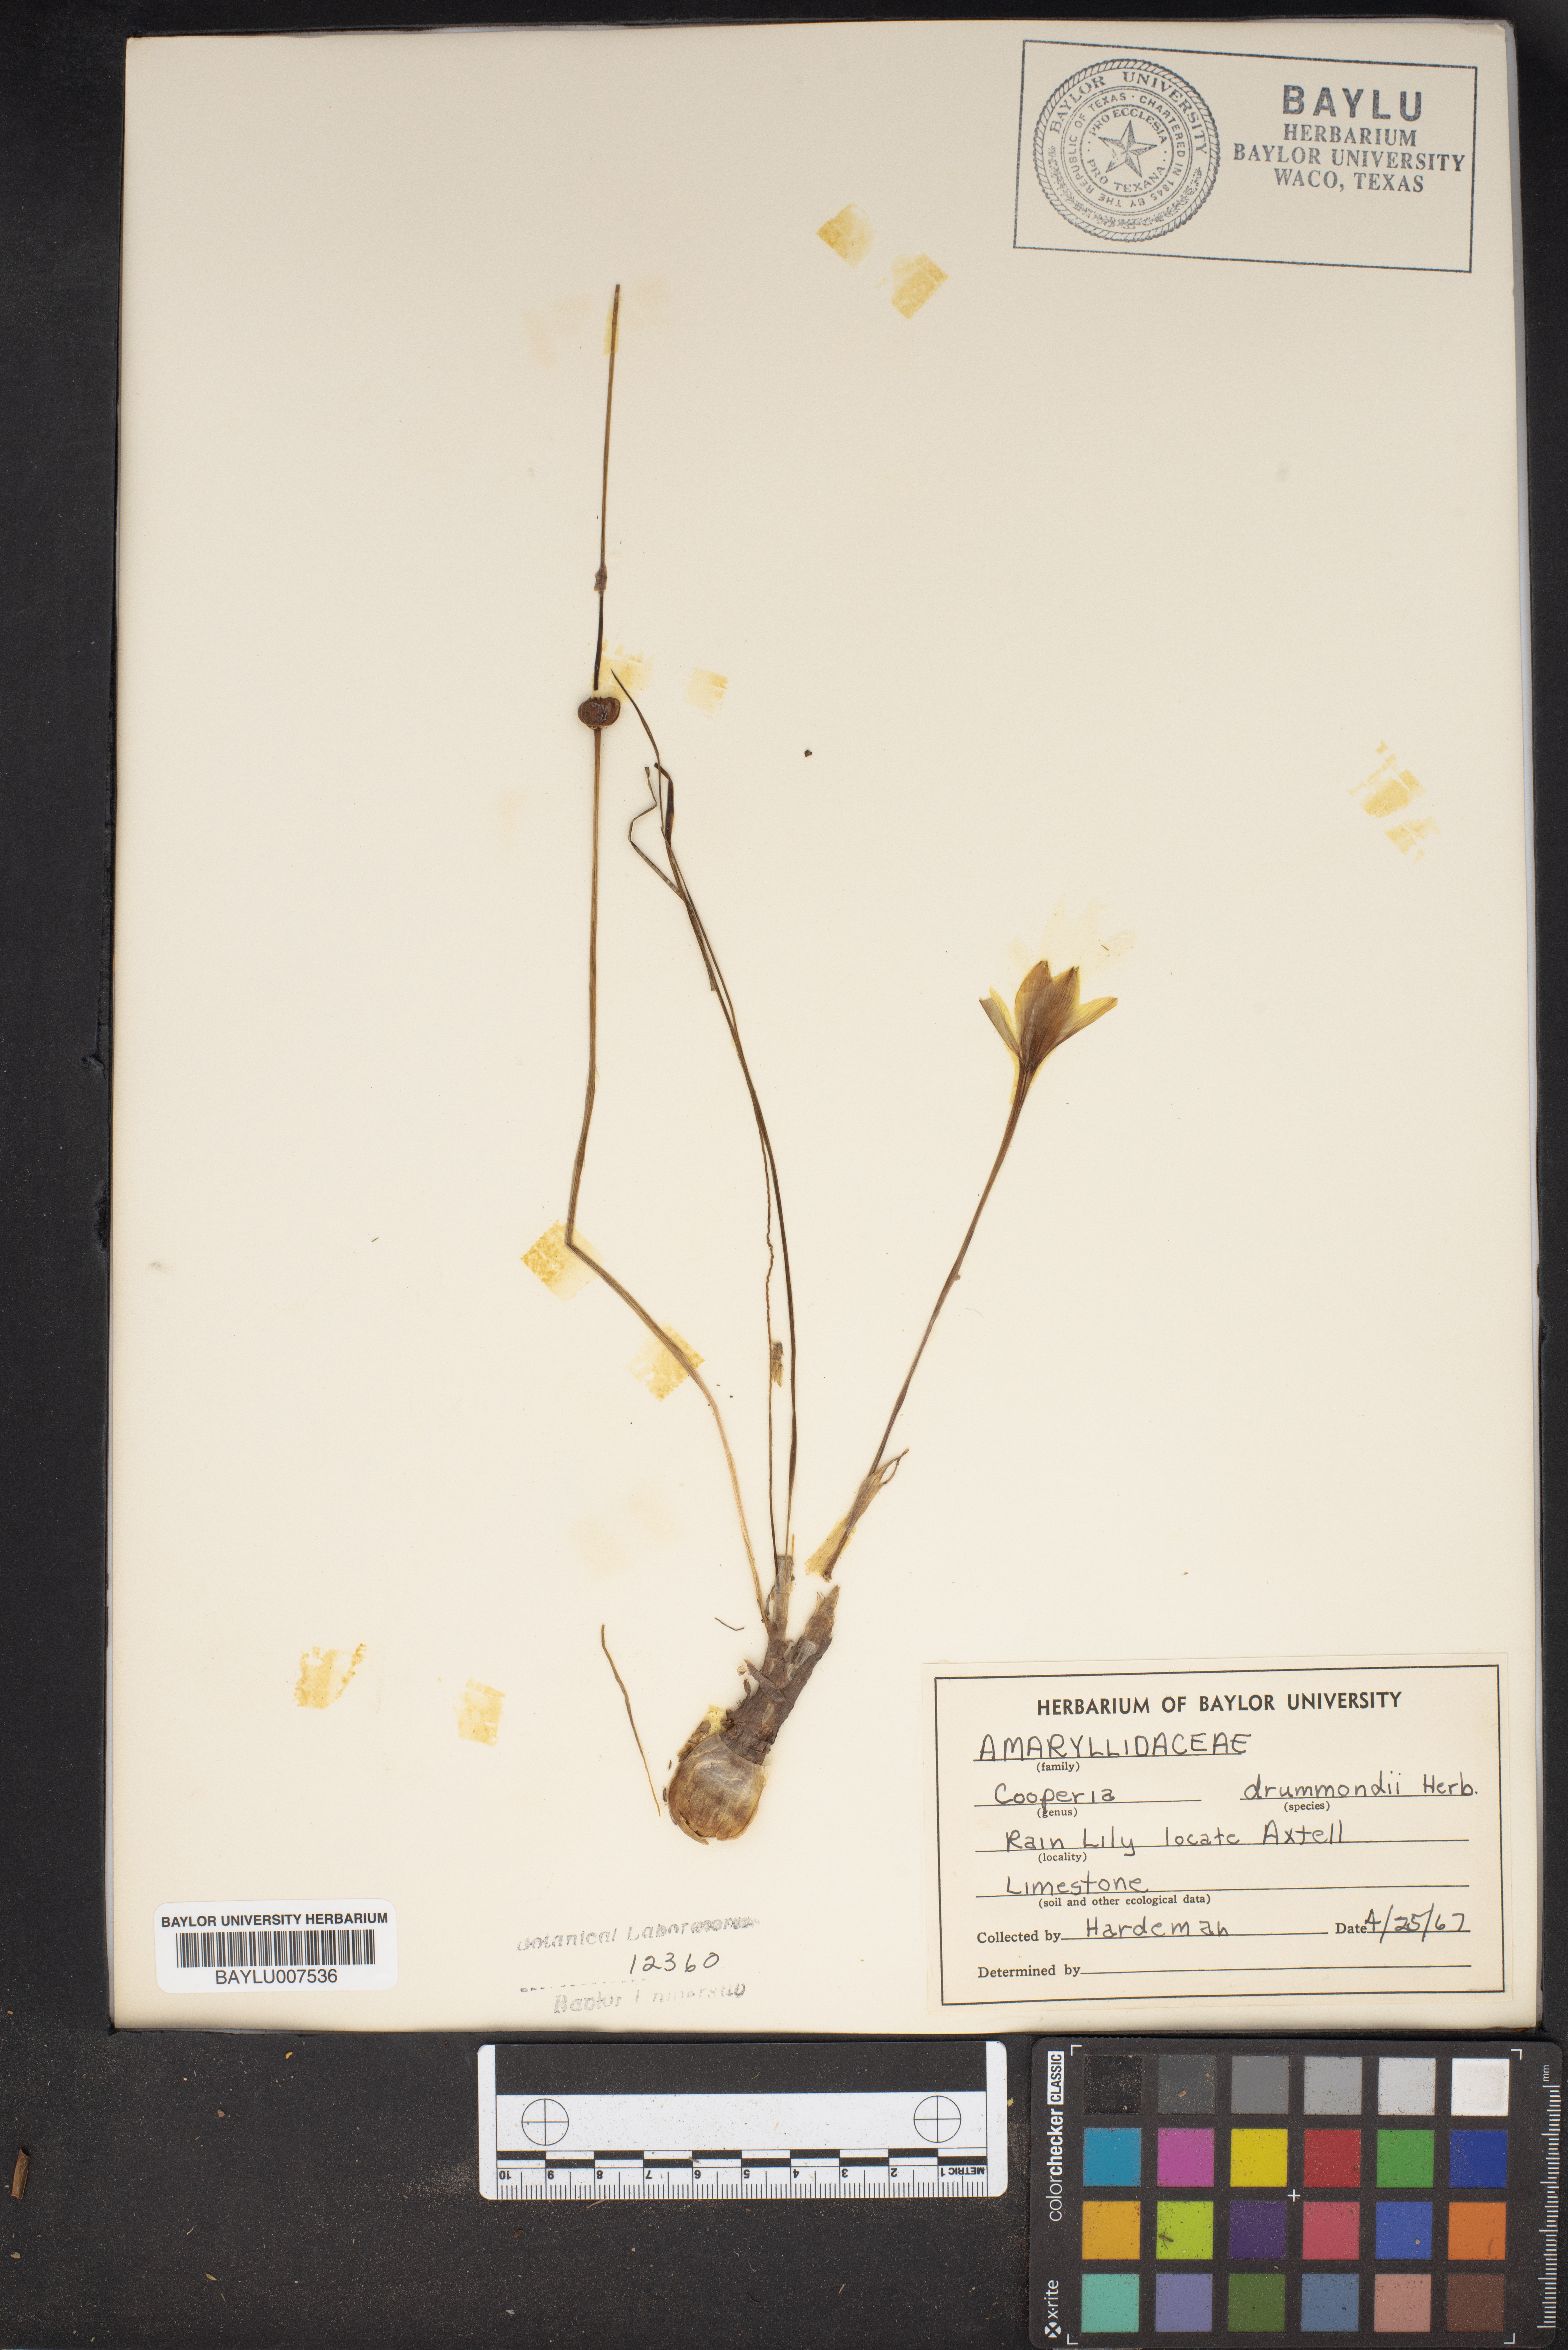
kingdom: Plantae
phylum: Tracheophyta
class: Liliopsida
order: Asparagales
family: Amaryllidaceae
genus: Zephyranthes
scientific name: Zephyranthes chlorosolen
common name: Evening rain-lily
